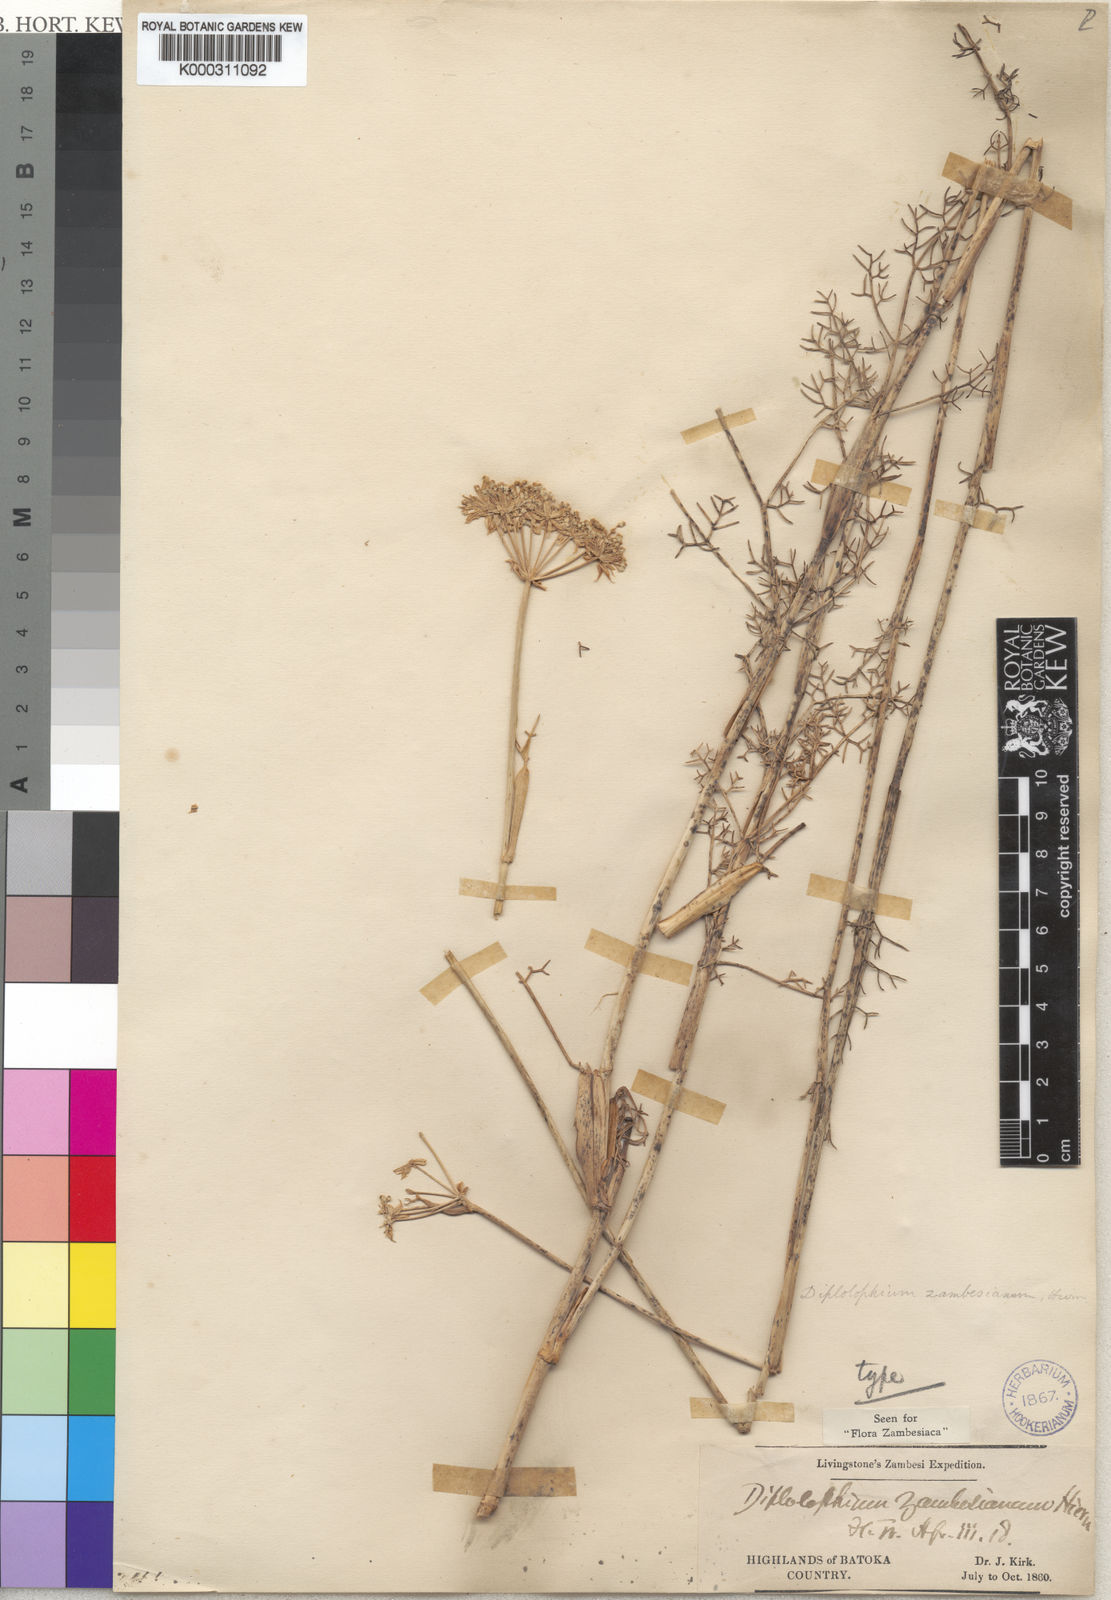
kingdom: Plantae
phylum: Tracheophyta
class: Magnoliopsida
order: Apiales
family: Apiaceae
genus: Diplolophium
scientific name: Diplolophium zambesianum
